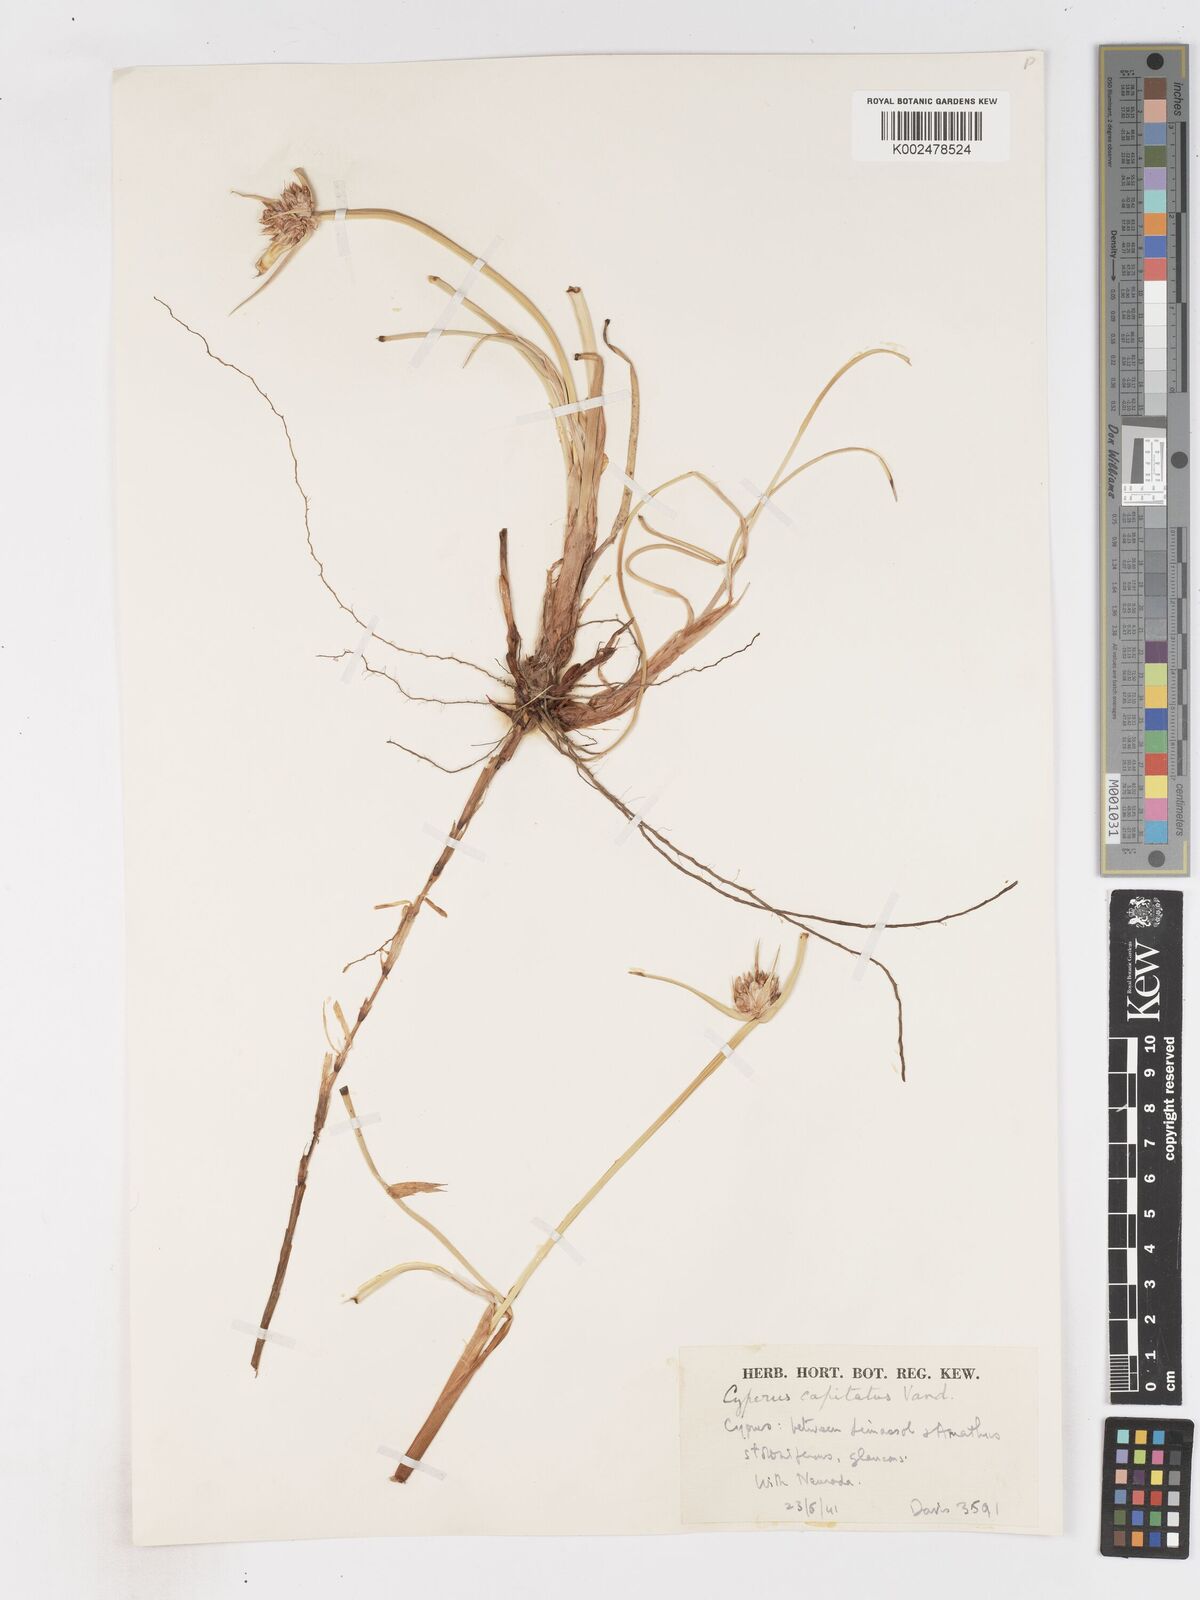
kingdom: Plantae
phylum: Tracheophyta
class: Liliopsida
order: Poales
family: Cyperaceae
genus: Cyperus
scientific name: Cyperus capitatus
